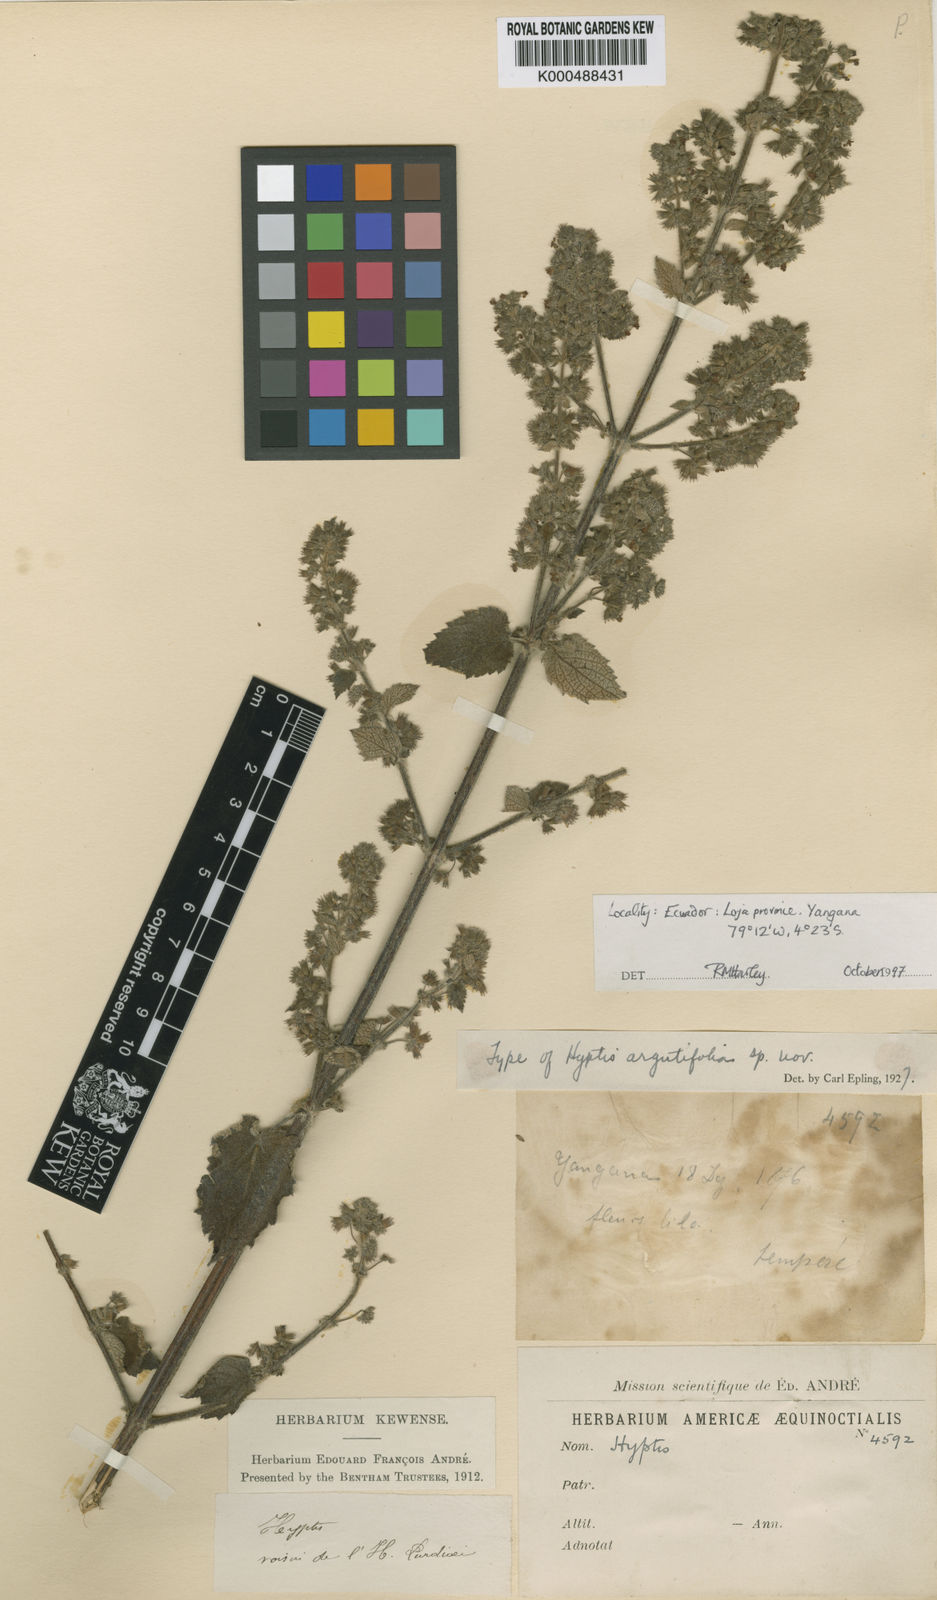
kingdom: Plantae
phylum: Tracheophyta
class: Magnoliopsida
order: Lamiales
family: Lamiaceae
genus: Mesosphaerum
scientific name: Mesosphaerum argutifolium
